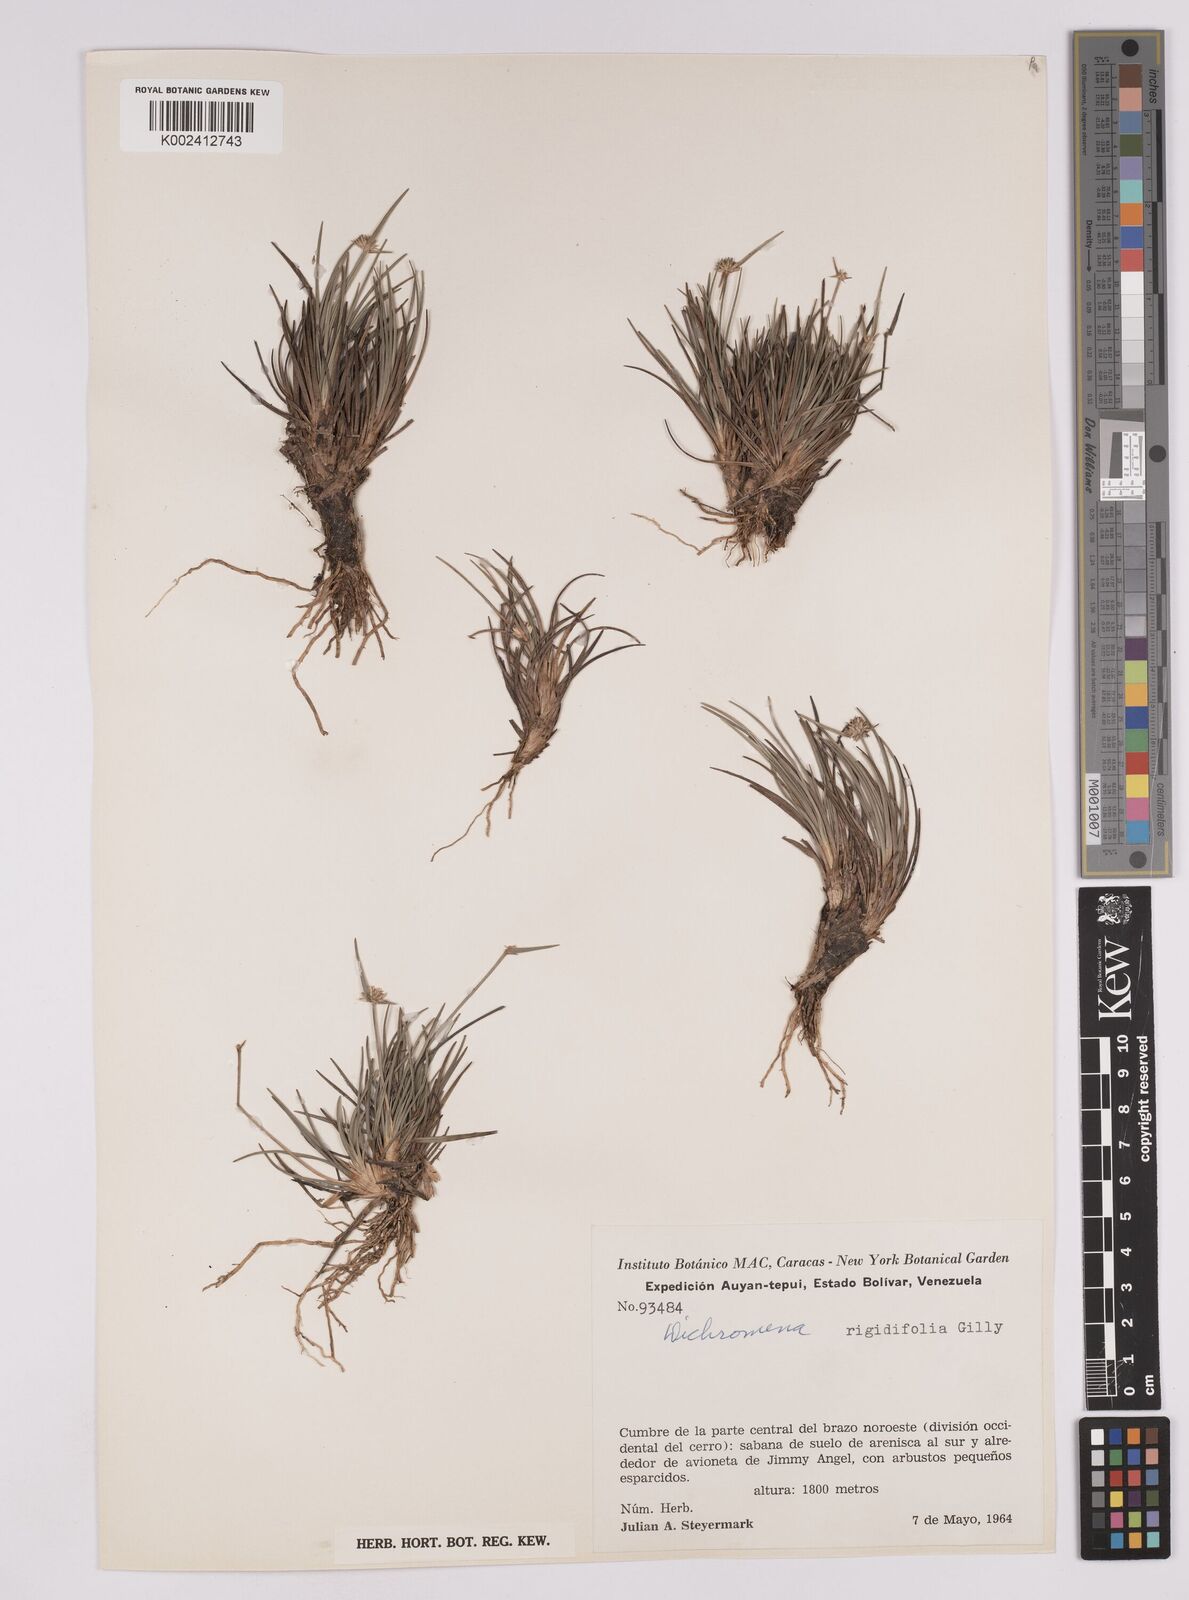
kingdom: Plantae
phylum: Tracheophyta
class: Liliopsida
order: Poales
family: Cyperaceae
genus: Rhynchospora
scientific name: Rhynchospora rigidifolia
